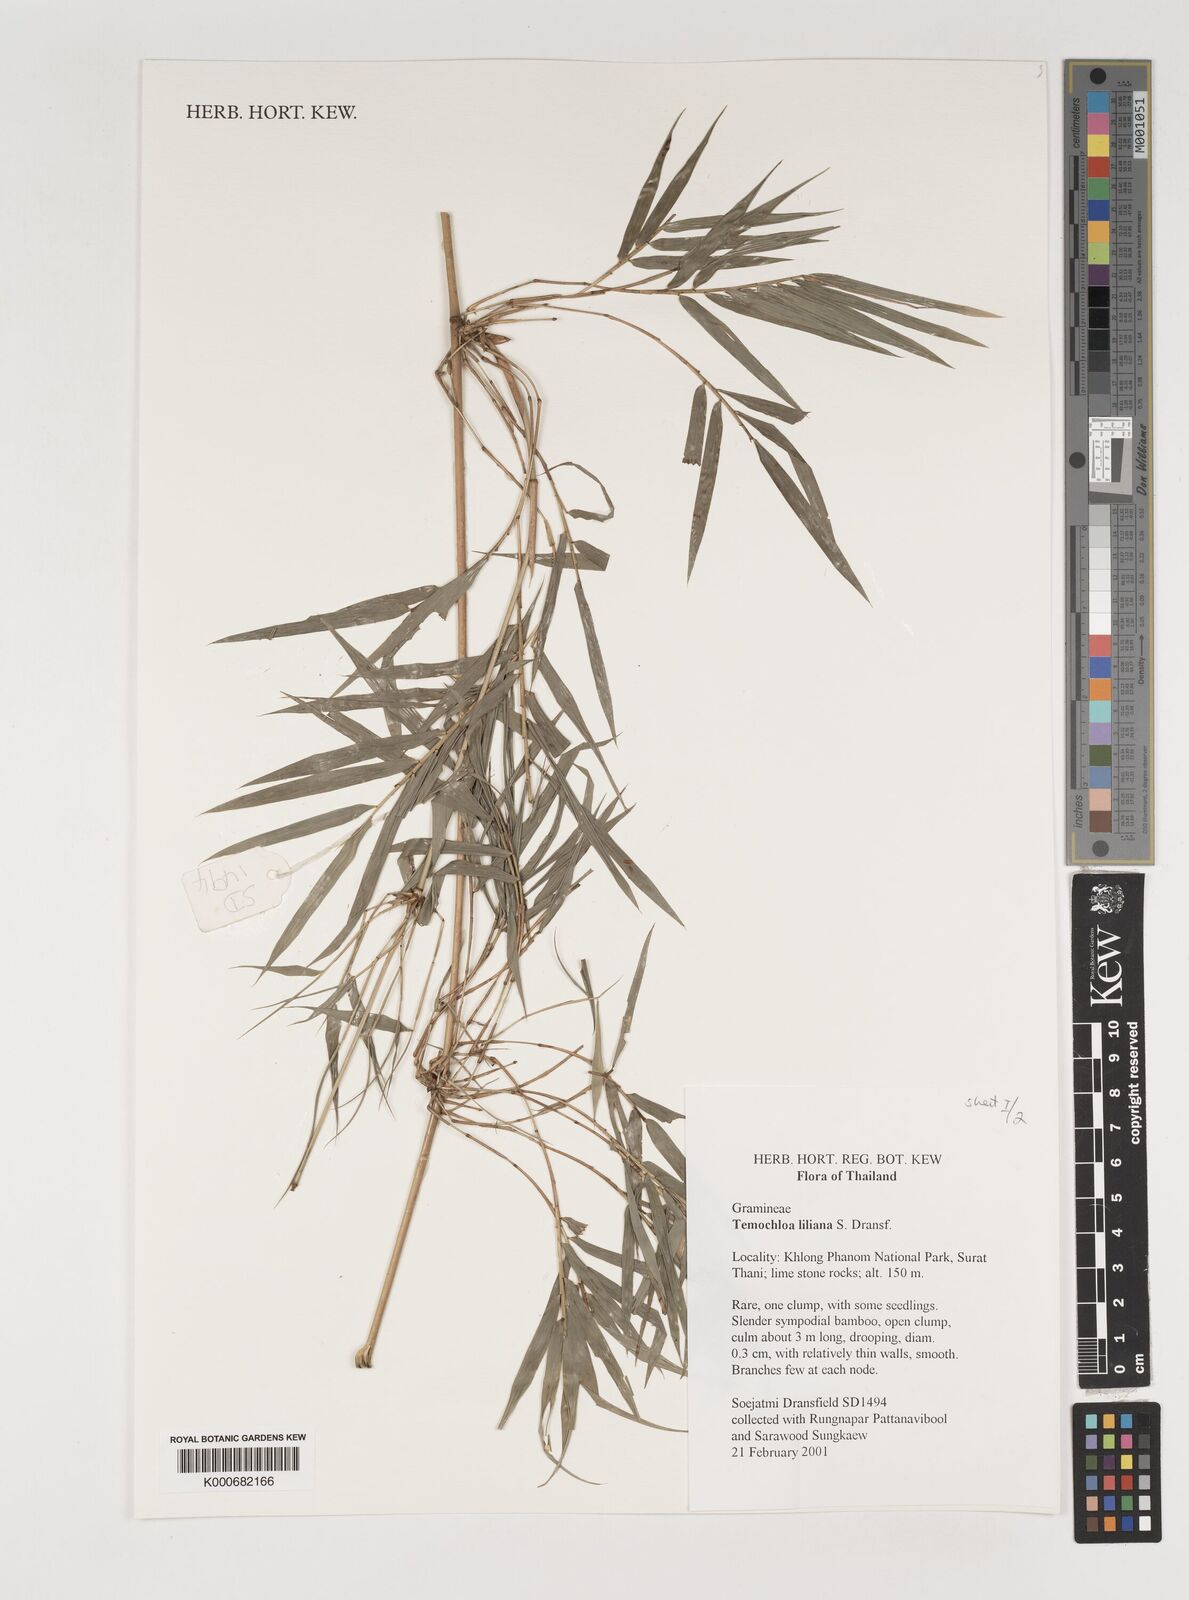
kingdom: Plantae
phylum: Tracheophyta
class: Liliopsida
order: Poales
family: Poaceae
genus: Temochloa
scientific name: Temochloa liliana
